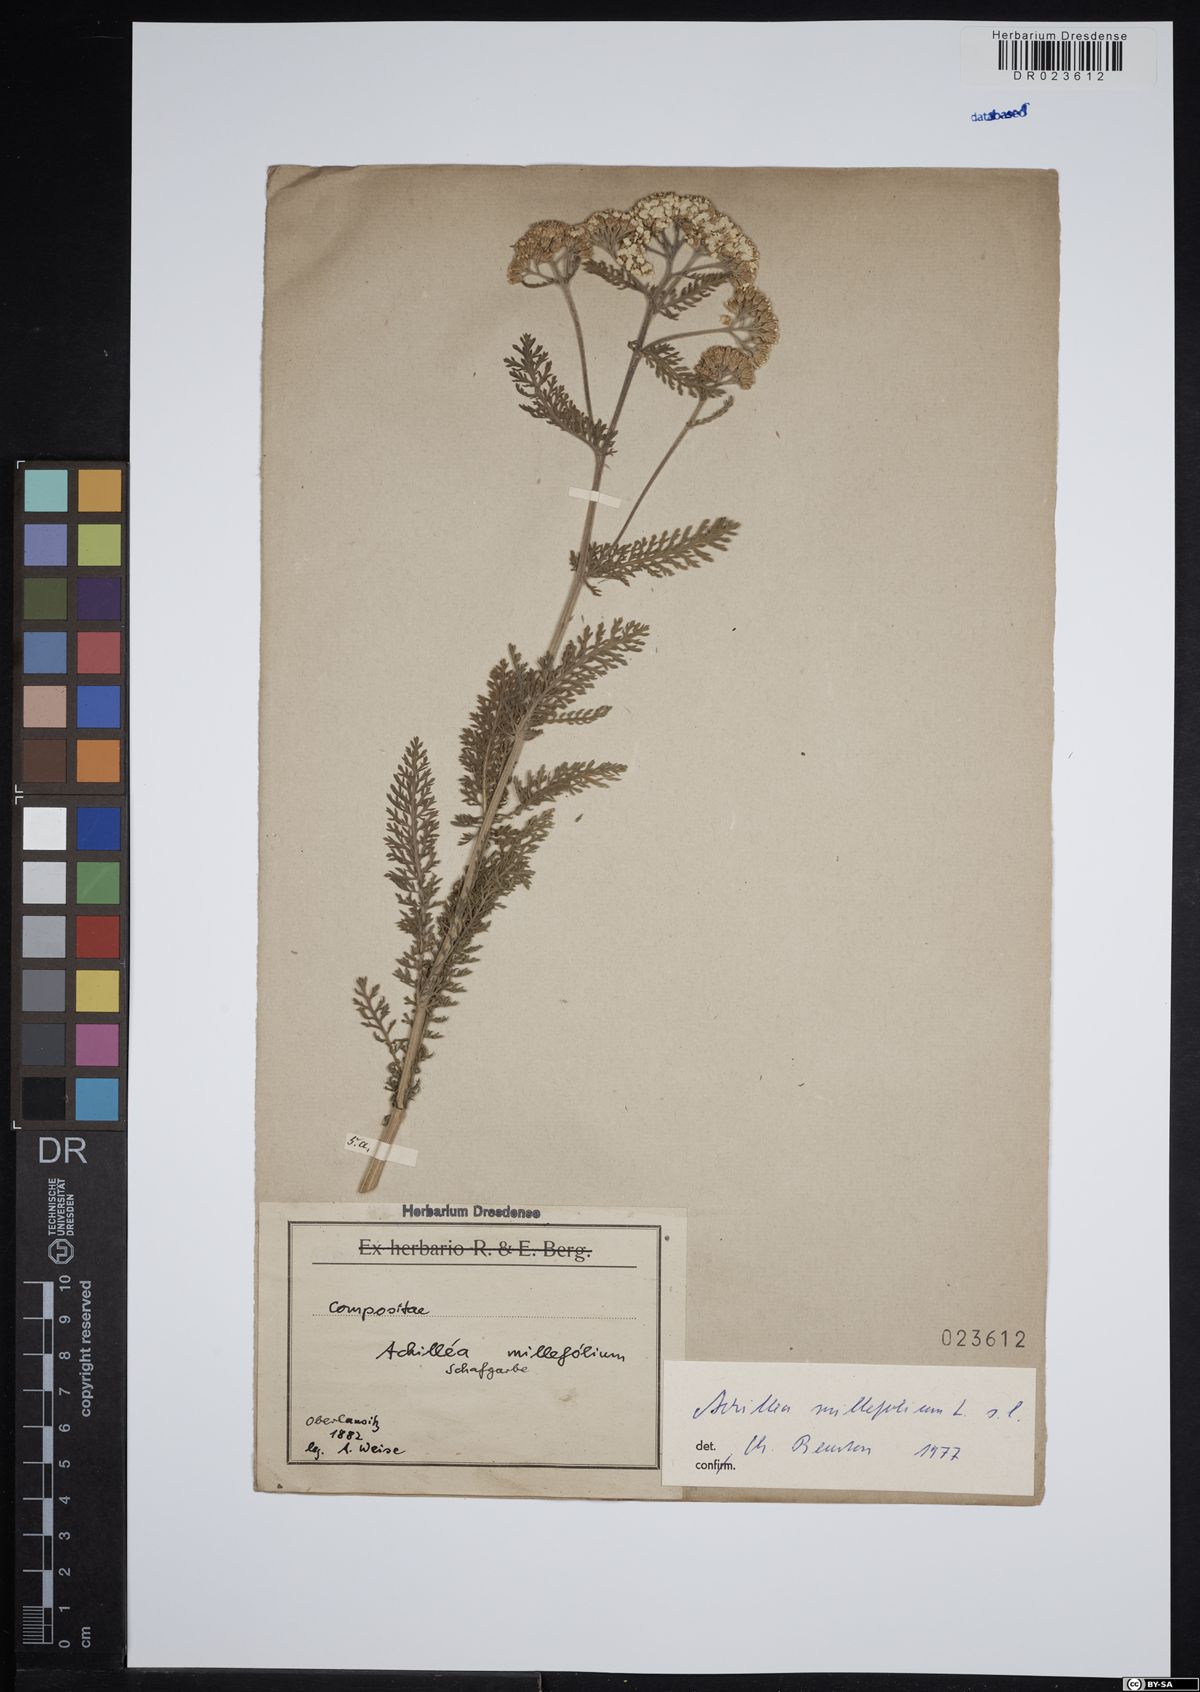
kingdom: Plantae
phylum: Tracheophyta
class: Magnoliopsida
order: Asterales
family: Asteraceae
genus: Achillea
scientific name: Achillea millefolium
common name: Yarrow
